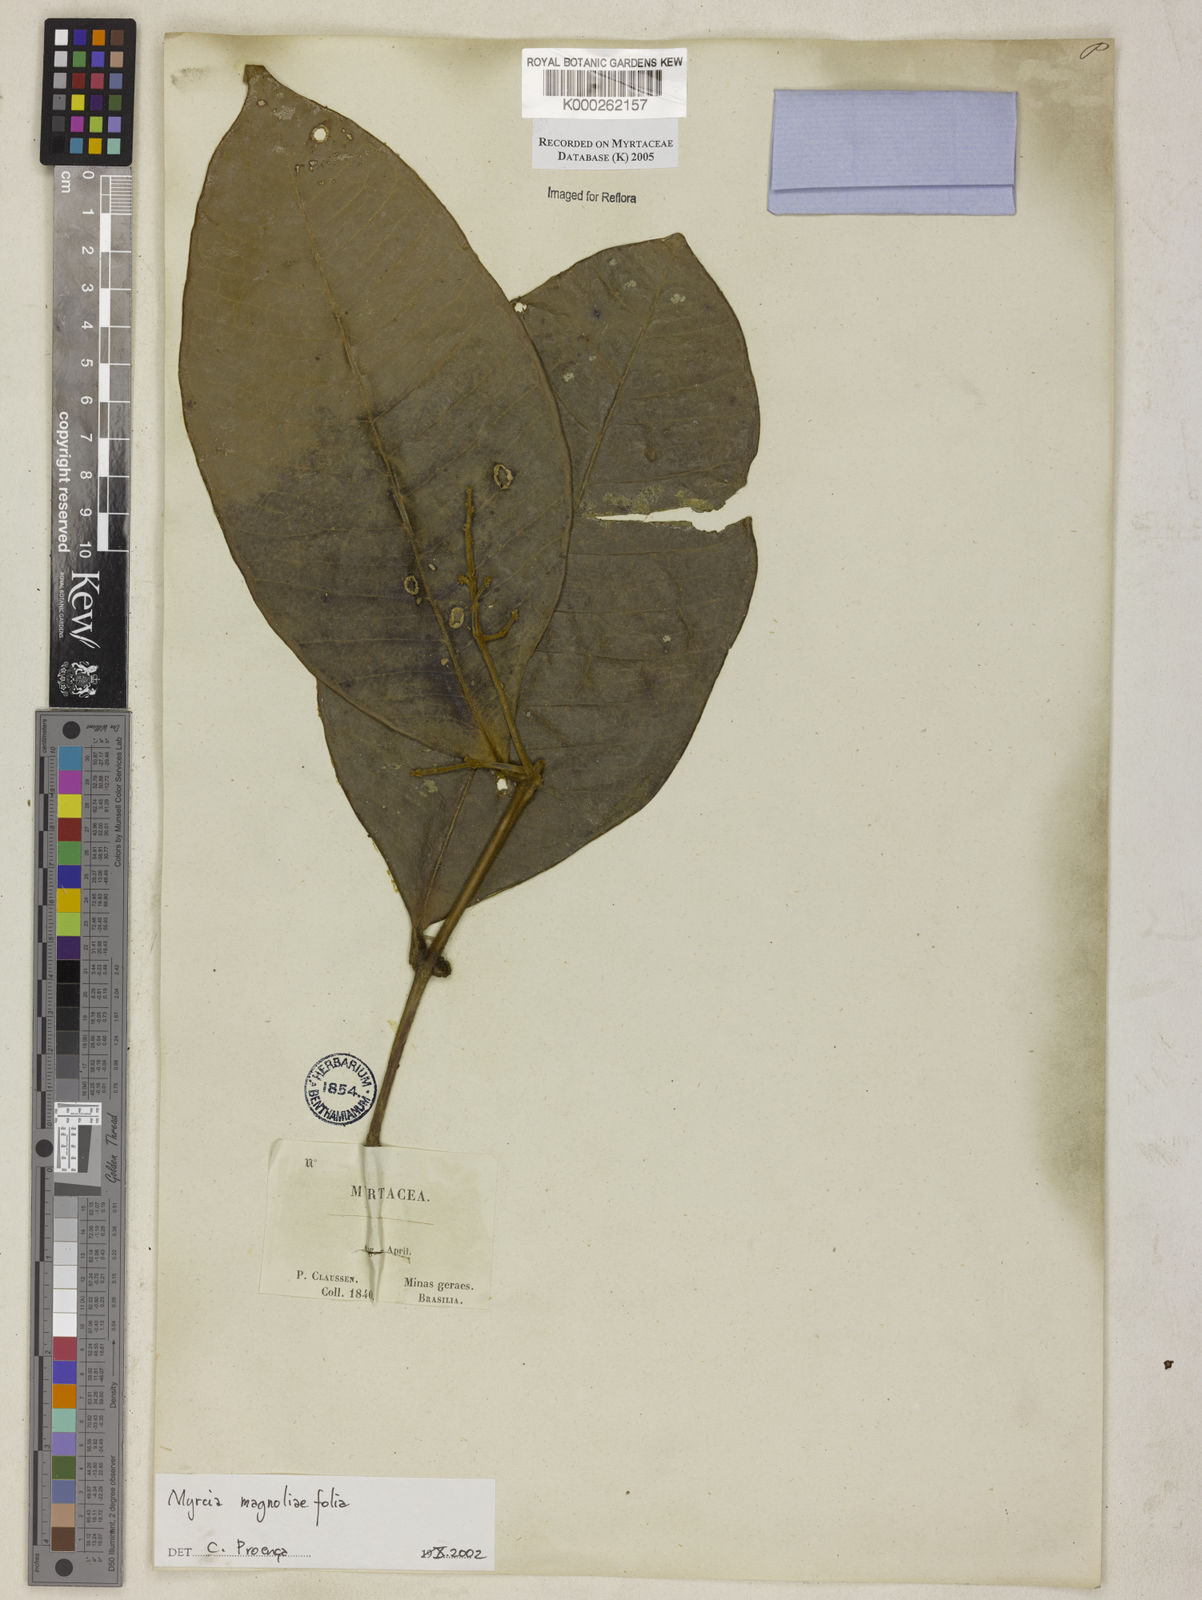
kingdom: Plantae
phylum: Tracheophyta
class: Magnoliopsida
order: Myrtales
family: Myrtaceae
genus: Myrcia
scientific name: Myrcia splendens
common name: Surinam cherry
